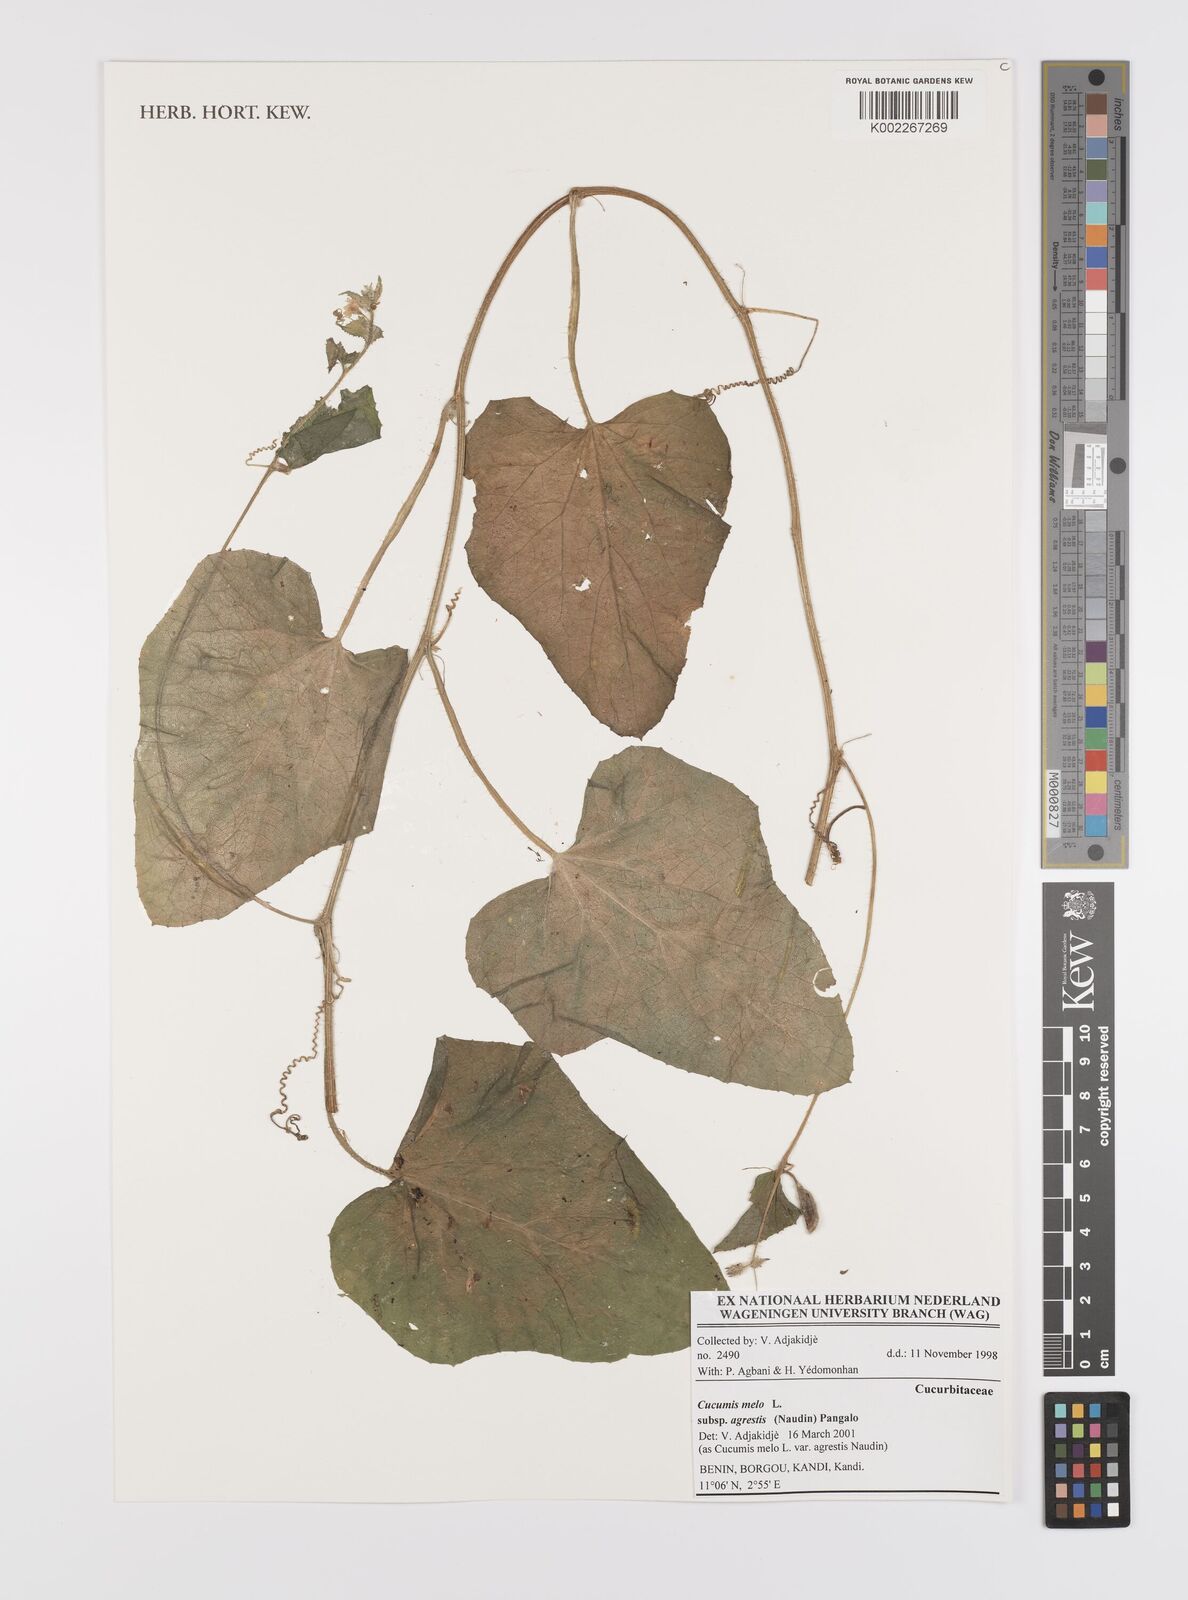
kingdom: Plantae
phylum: Tracheophyta
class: Magnoliopsida
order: Cucurbitales
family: Cucurbitaceae
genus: Cucumis
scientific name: Cucumis melo
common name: Melon
